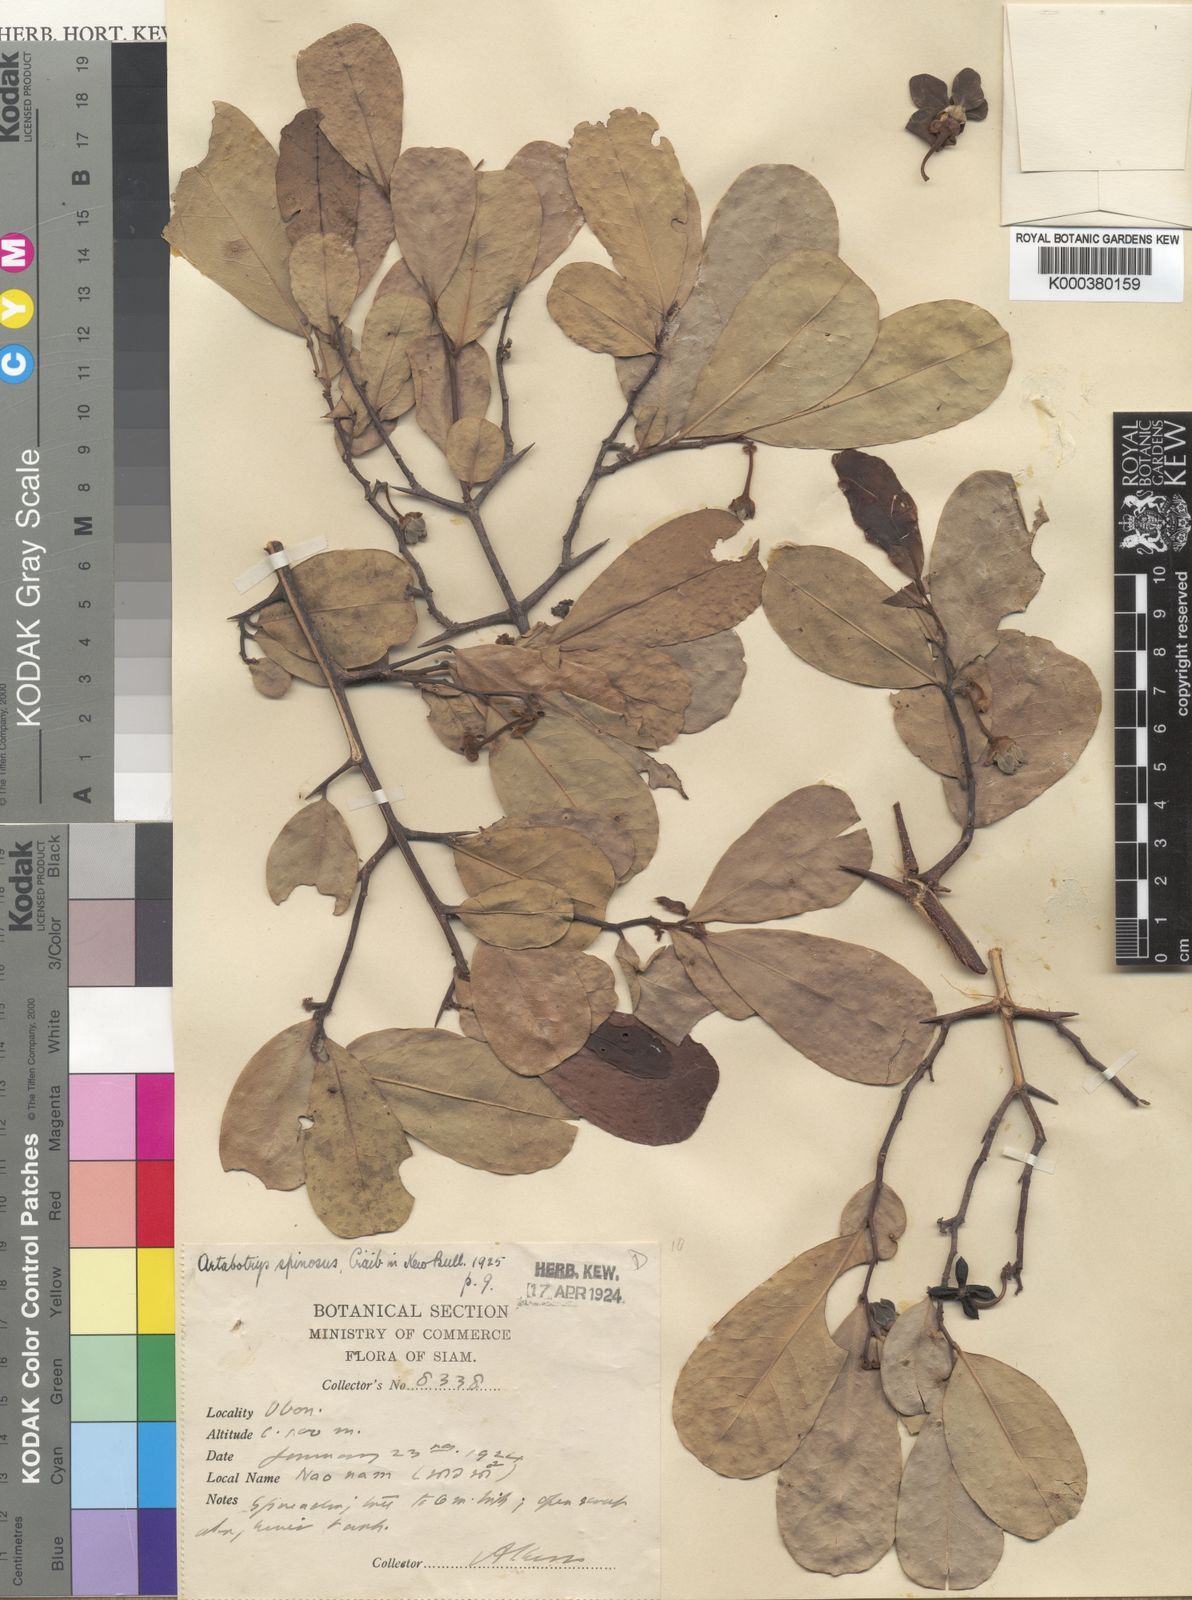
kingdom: Plantae
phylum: Tracheophyta
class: Magnoliopsida
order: Magnoliales
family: Annonaceae
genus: Artabotrys
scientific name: Artabotrys spinosus
